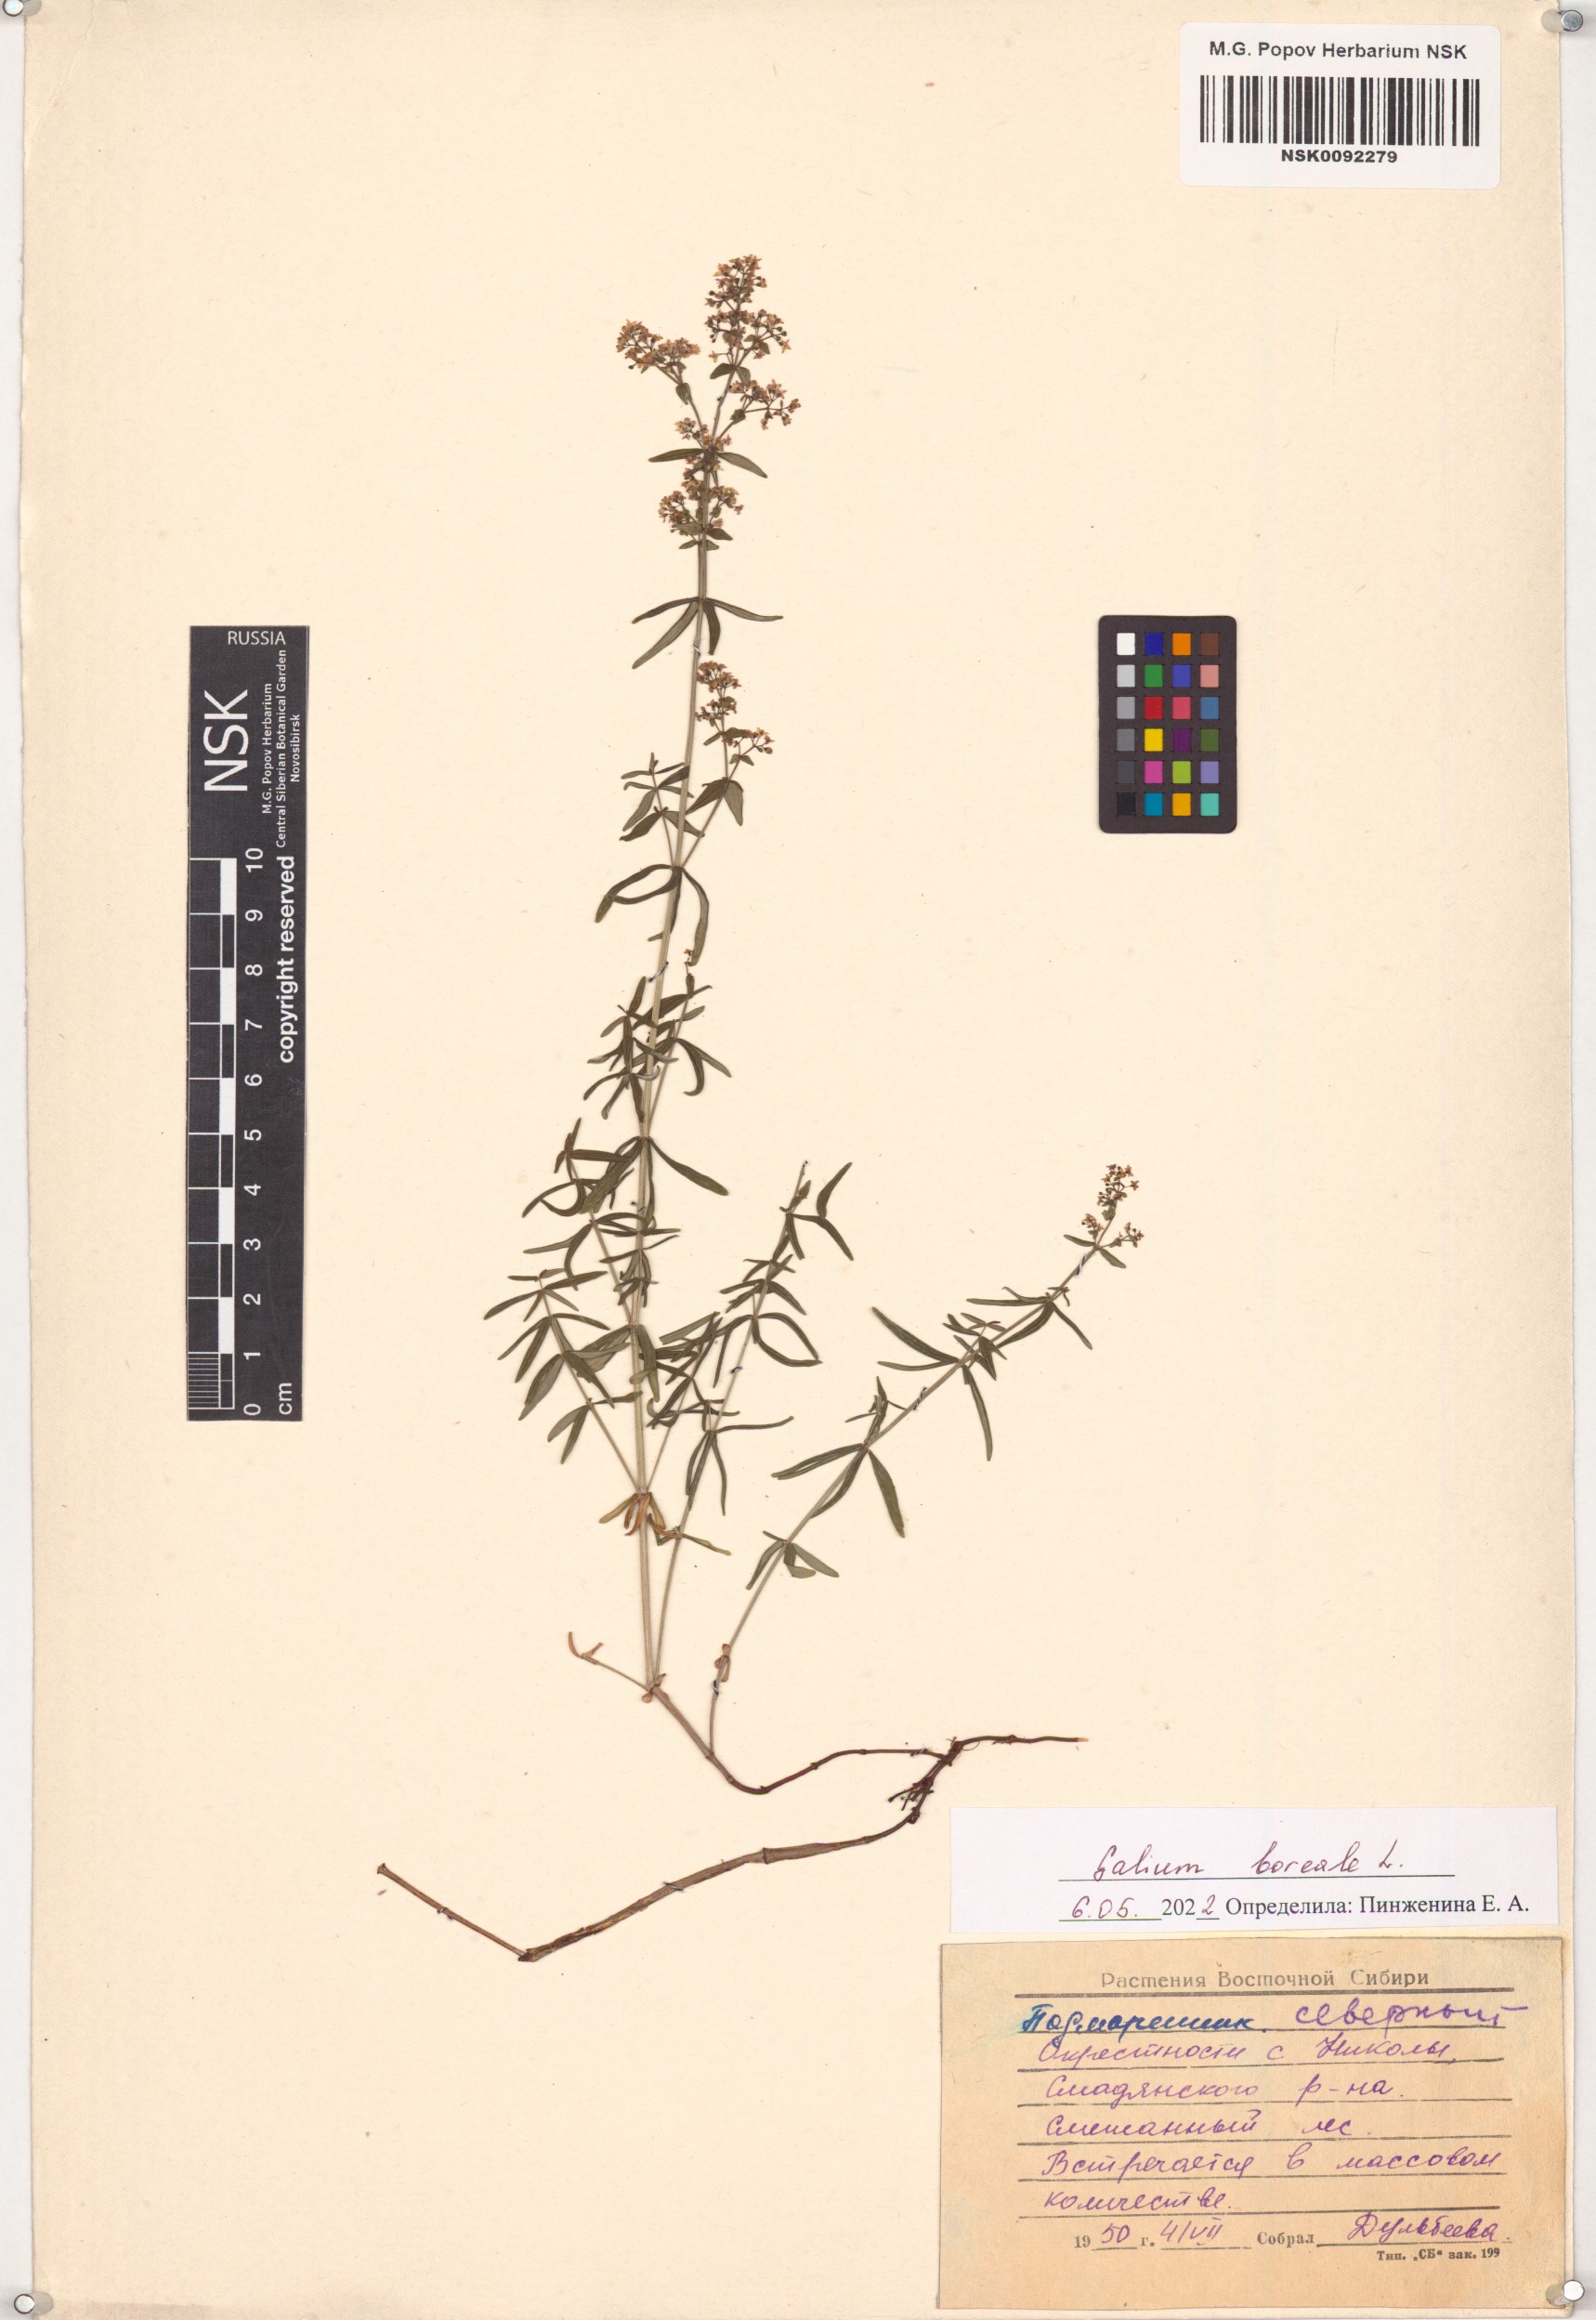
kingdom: Plantae
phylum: Tracheophyta
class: Magnoliopsida
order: Gentianales
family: Rubiaceae
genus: Galium
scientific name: Galium boreale
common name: Northern bedstraw
